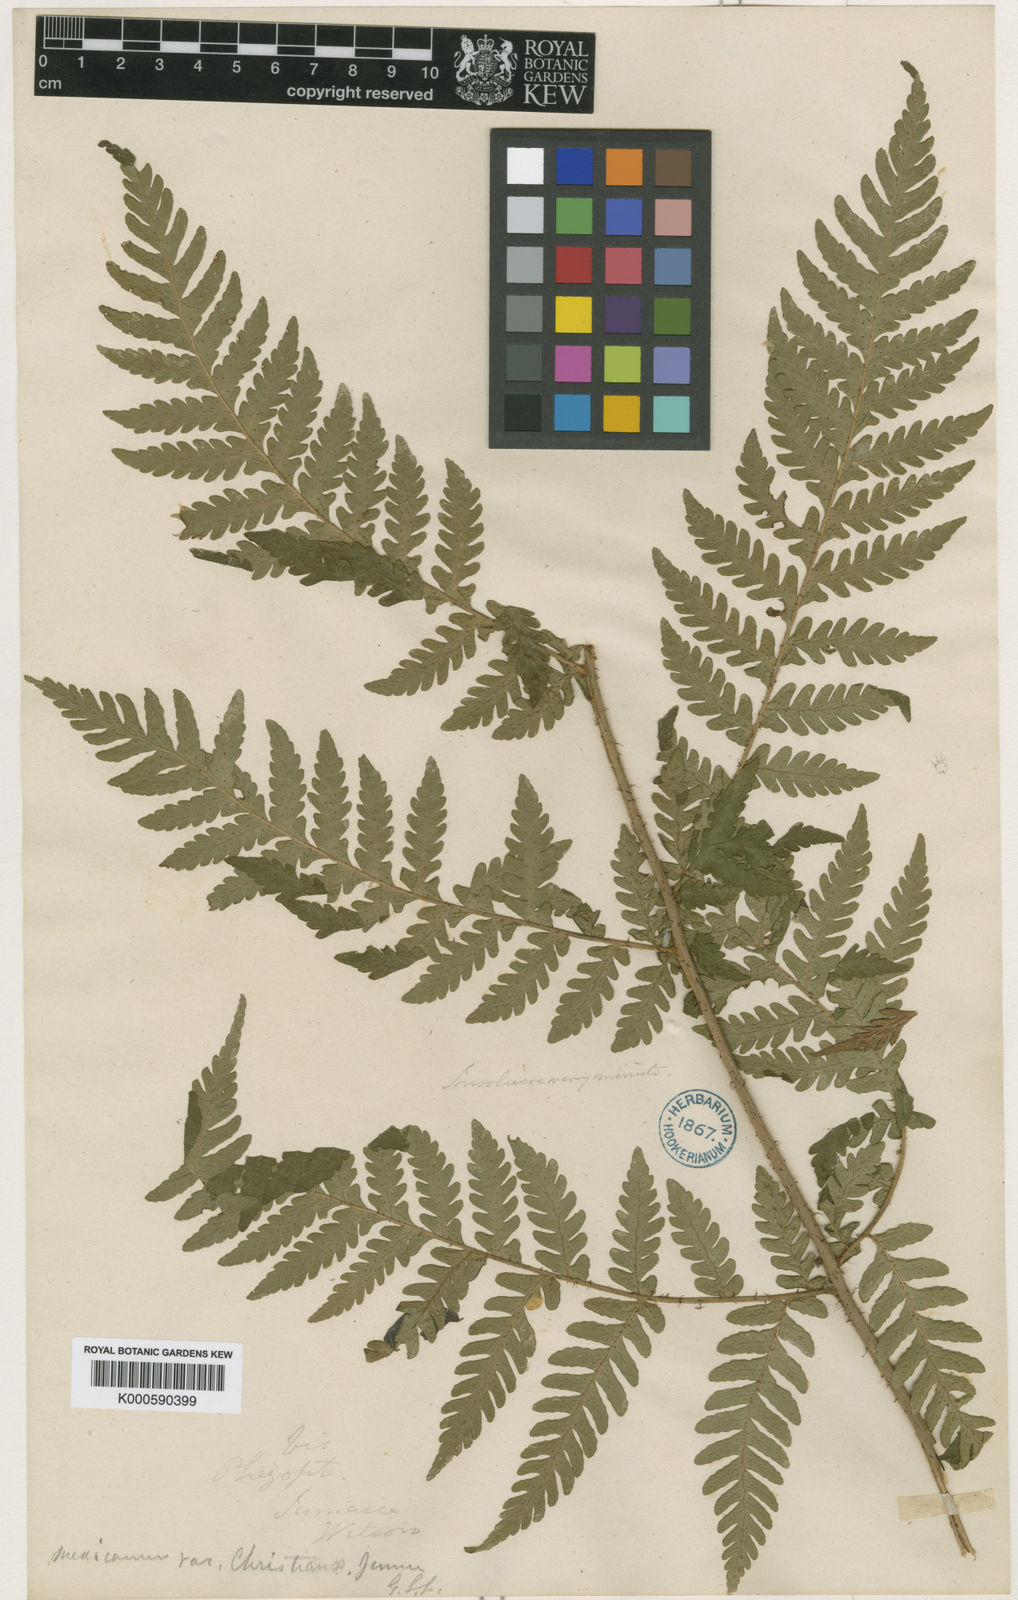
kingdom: Plantae
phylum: Tracheophyta
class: Polypodiopsida
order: Polypodiales
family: Dryopteridaceae
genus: Dryopteris
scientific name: Dryopteris patula
